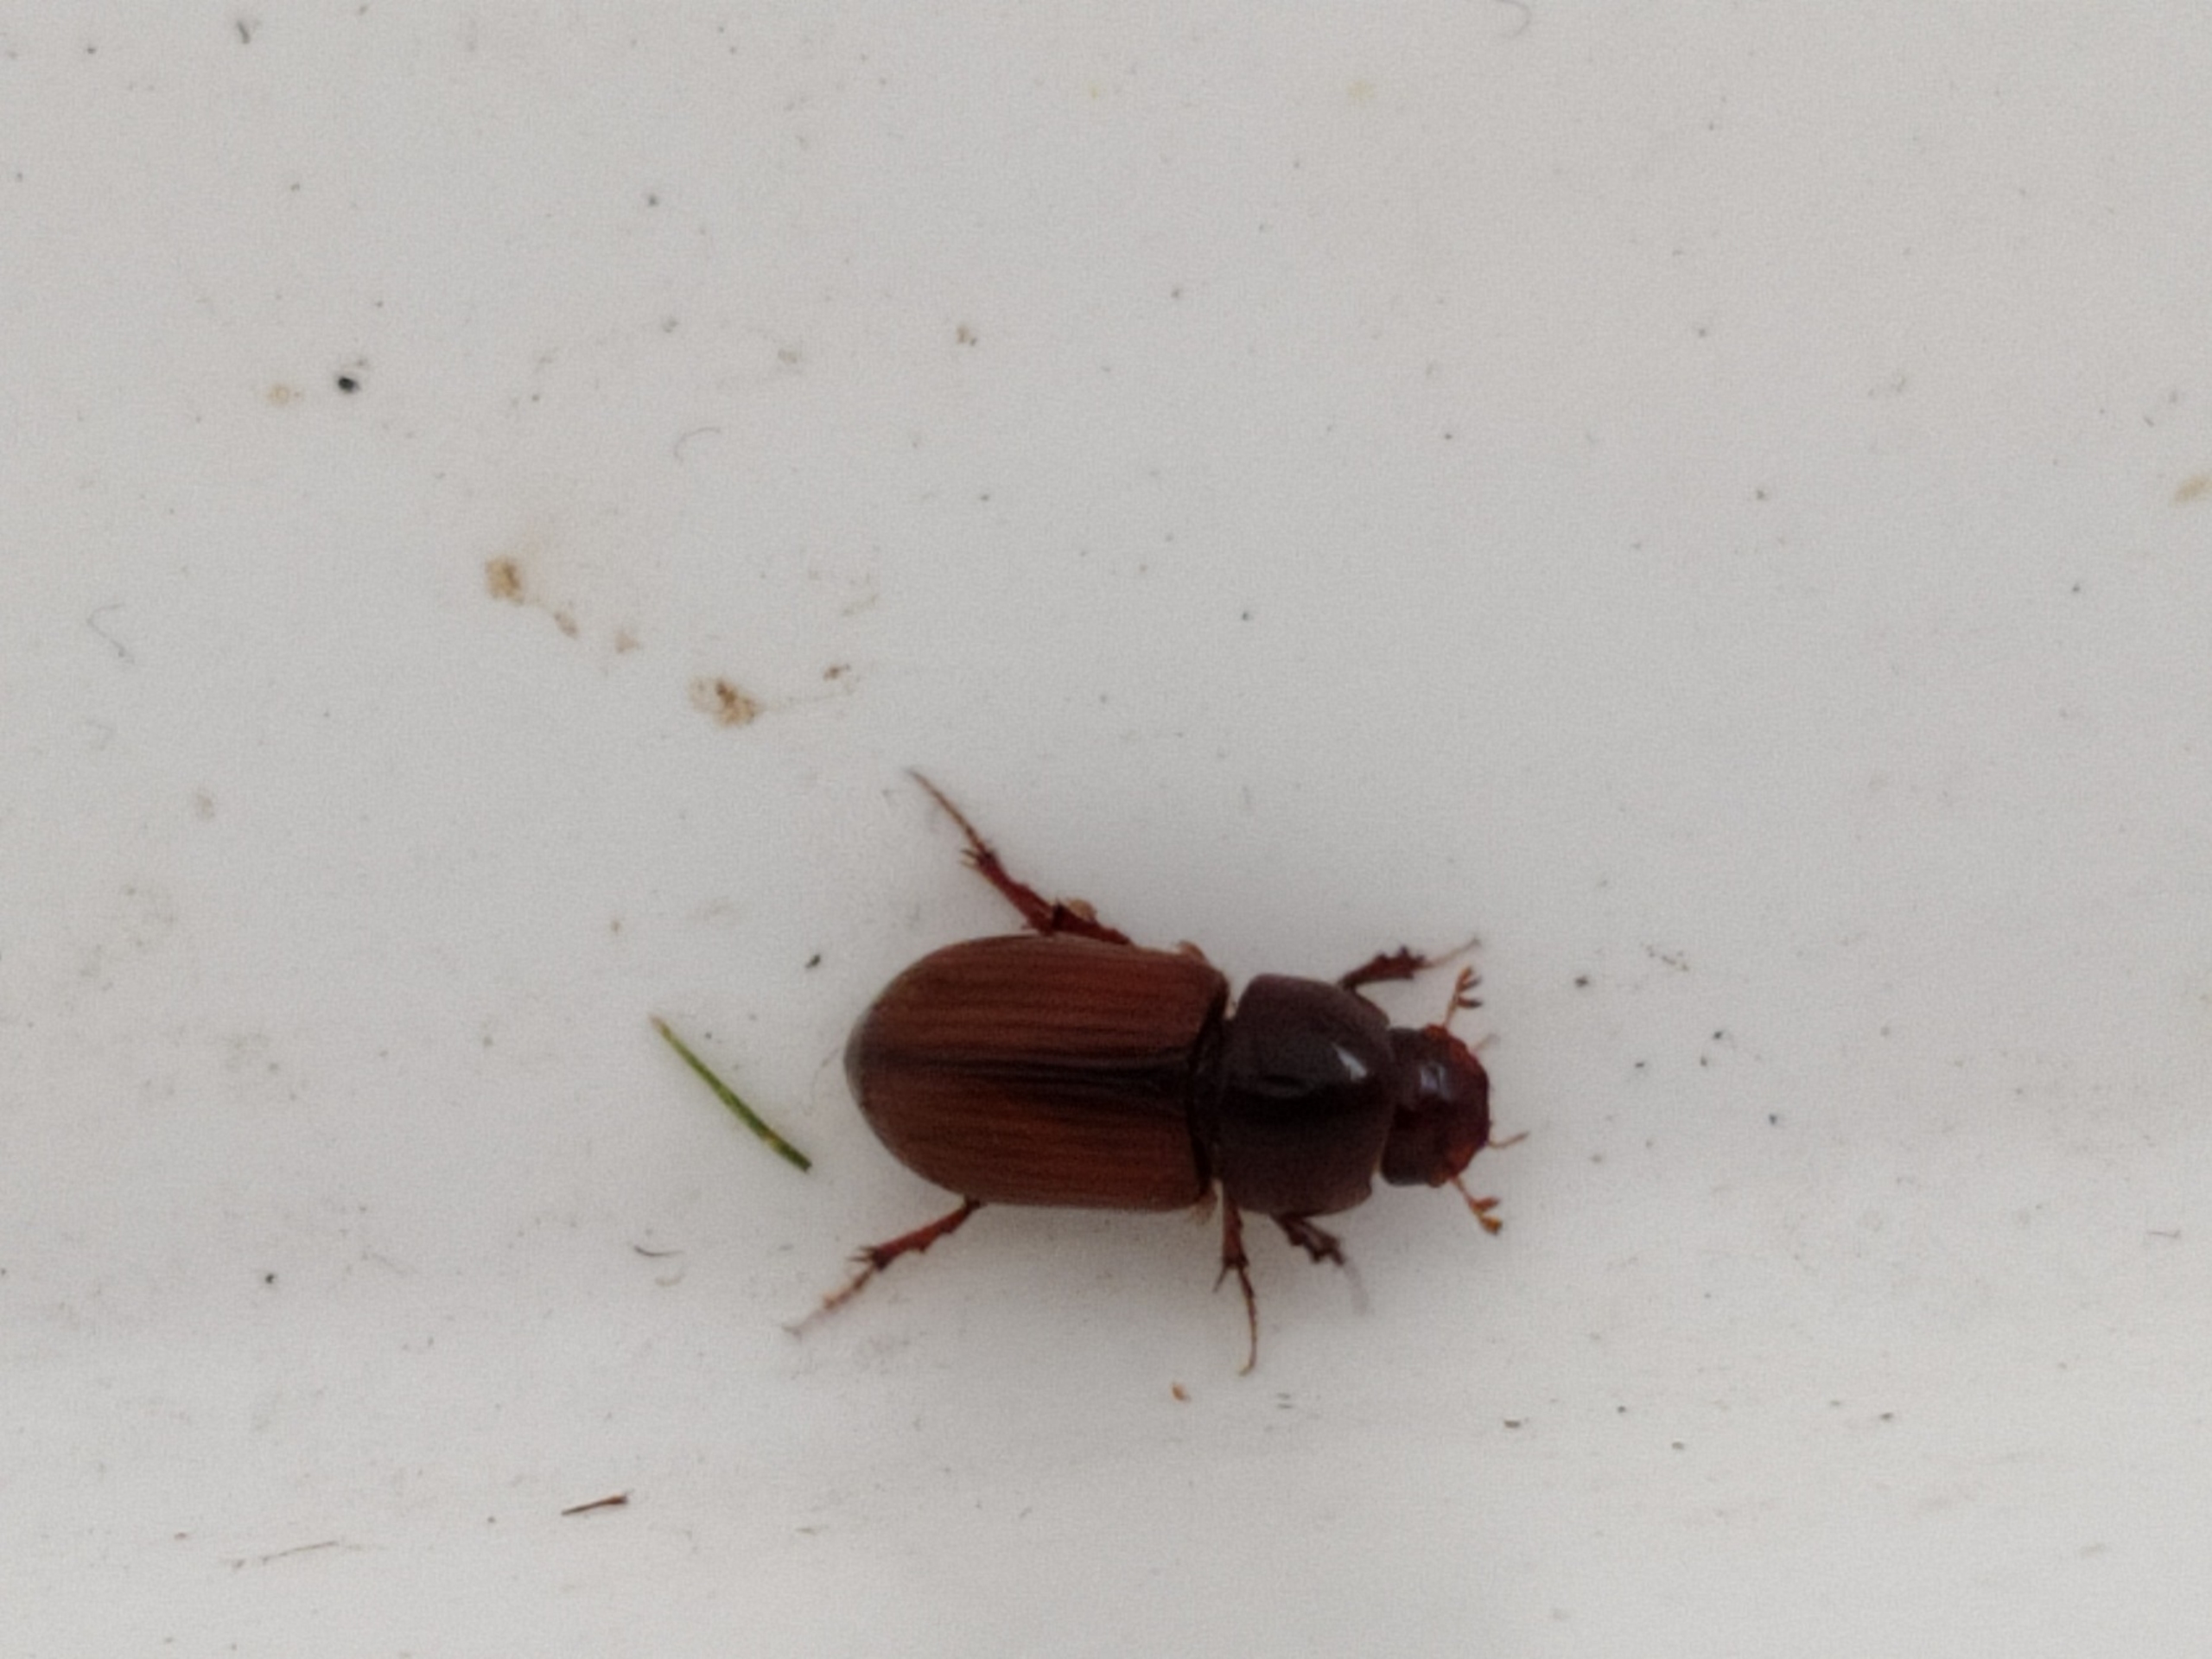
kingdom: Animalia
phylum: Arthropoda
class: Insecta
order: Coleoptera
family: Scarabaeidae
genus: Bodilopsis
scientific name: Bodilopsis rufus
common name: Mahognibrun møgbille
